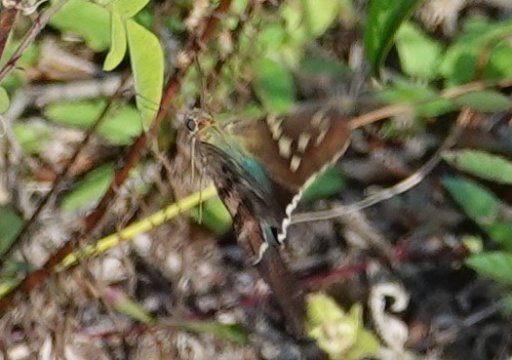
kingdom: Animalia
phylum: Arthropoda
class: Insecta
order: Lepidoptera
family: Hesperiidae
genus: Urbanus
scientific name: Urbanus proteus
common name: Long-tailed Skipper
